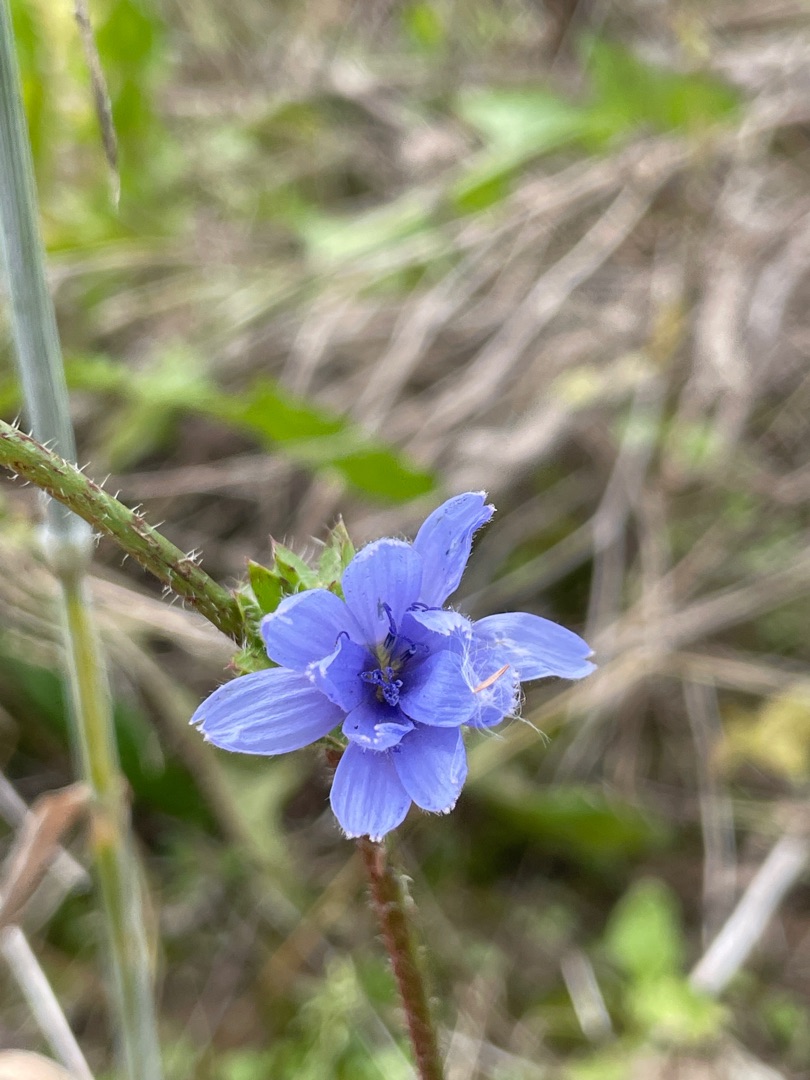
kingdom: Plantae
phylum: Tracheophyta
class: Magnoliopsida
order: Asterales
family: Asteraceae
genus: Cichorium
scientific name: Cichorium intybus
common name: Cikorie
